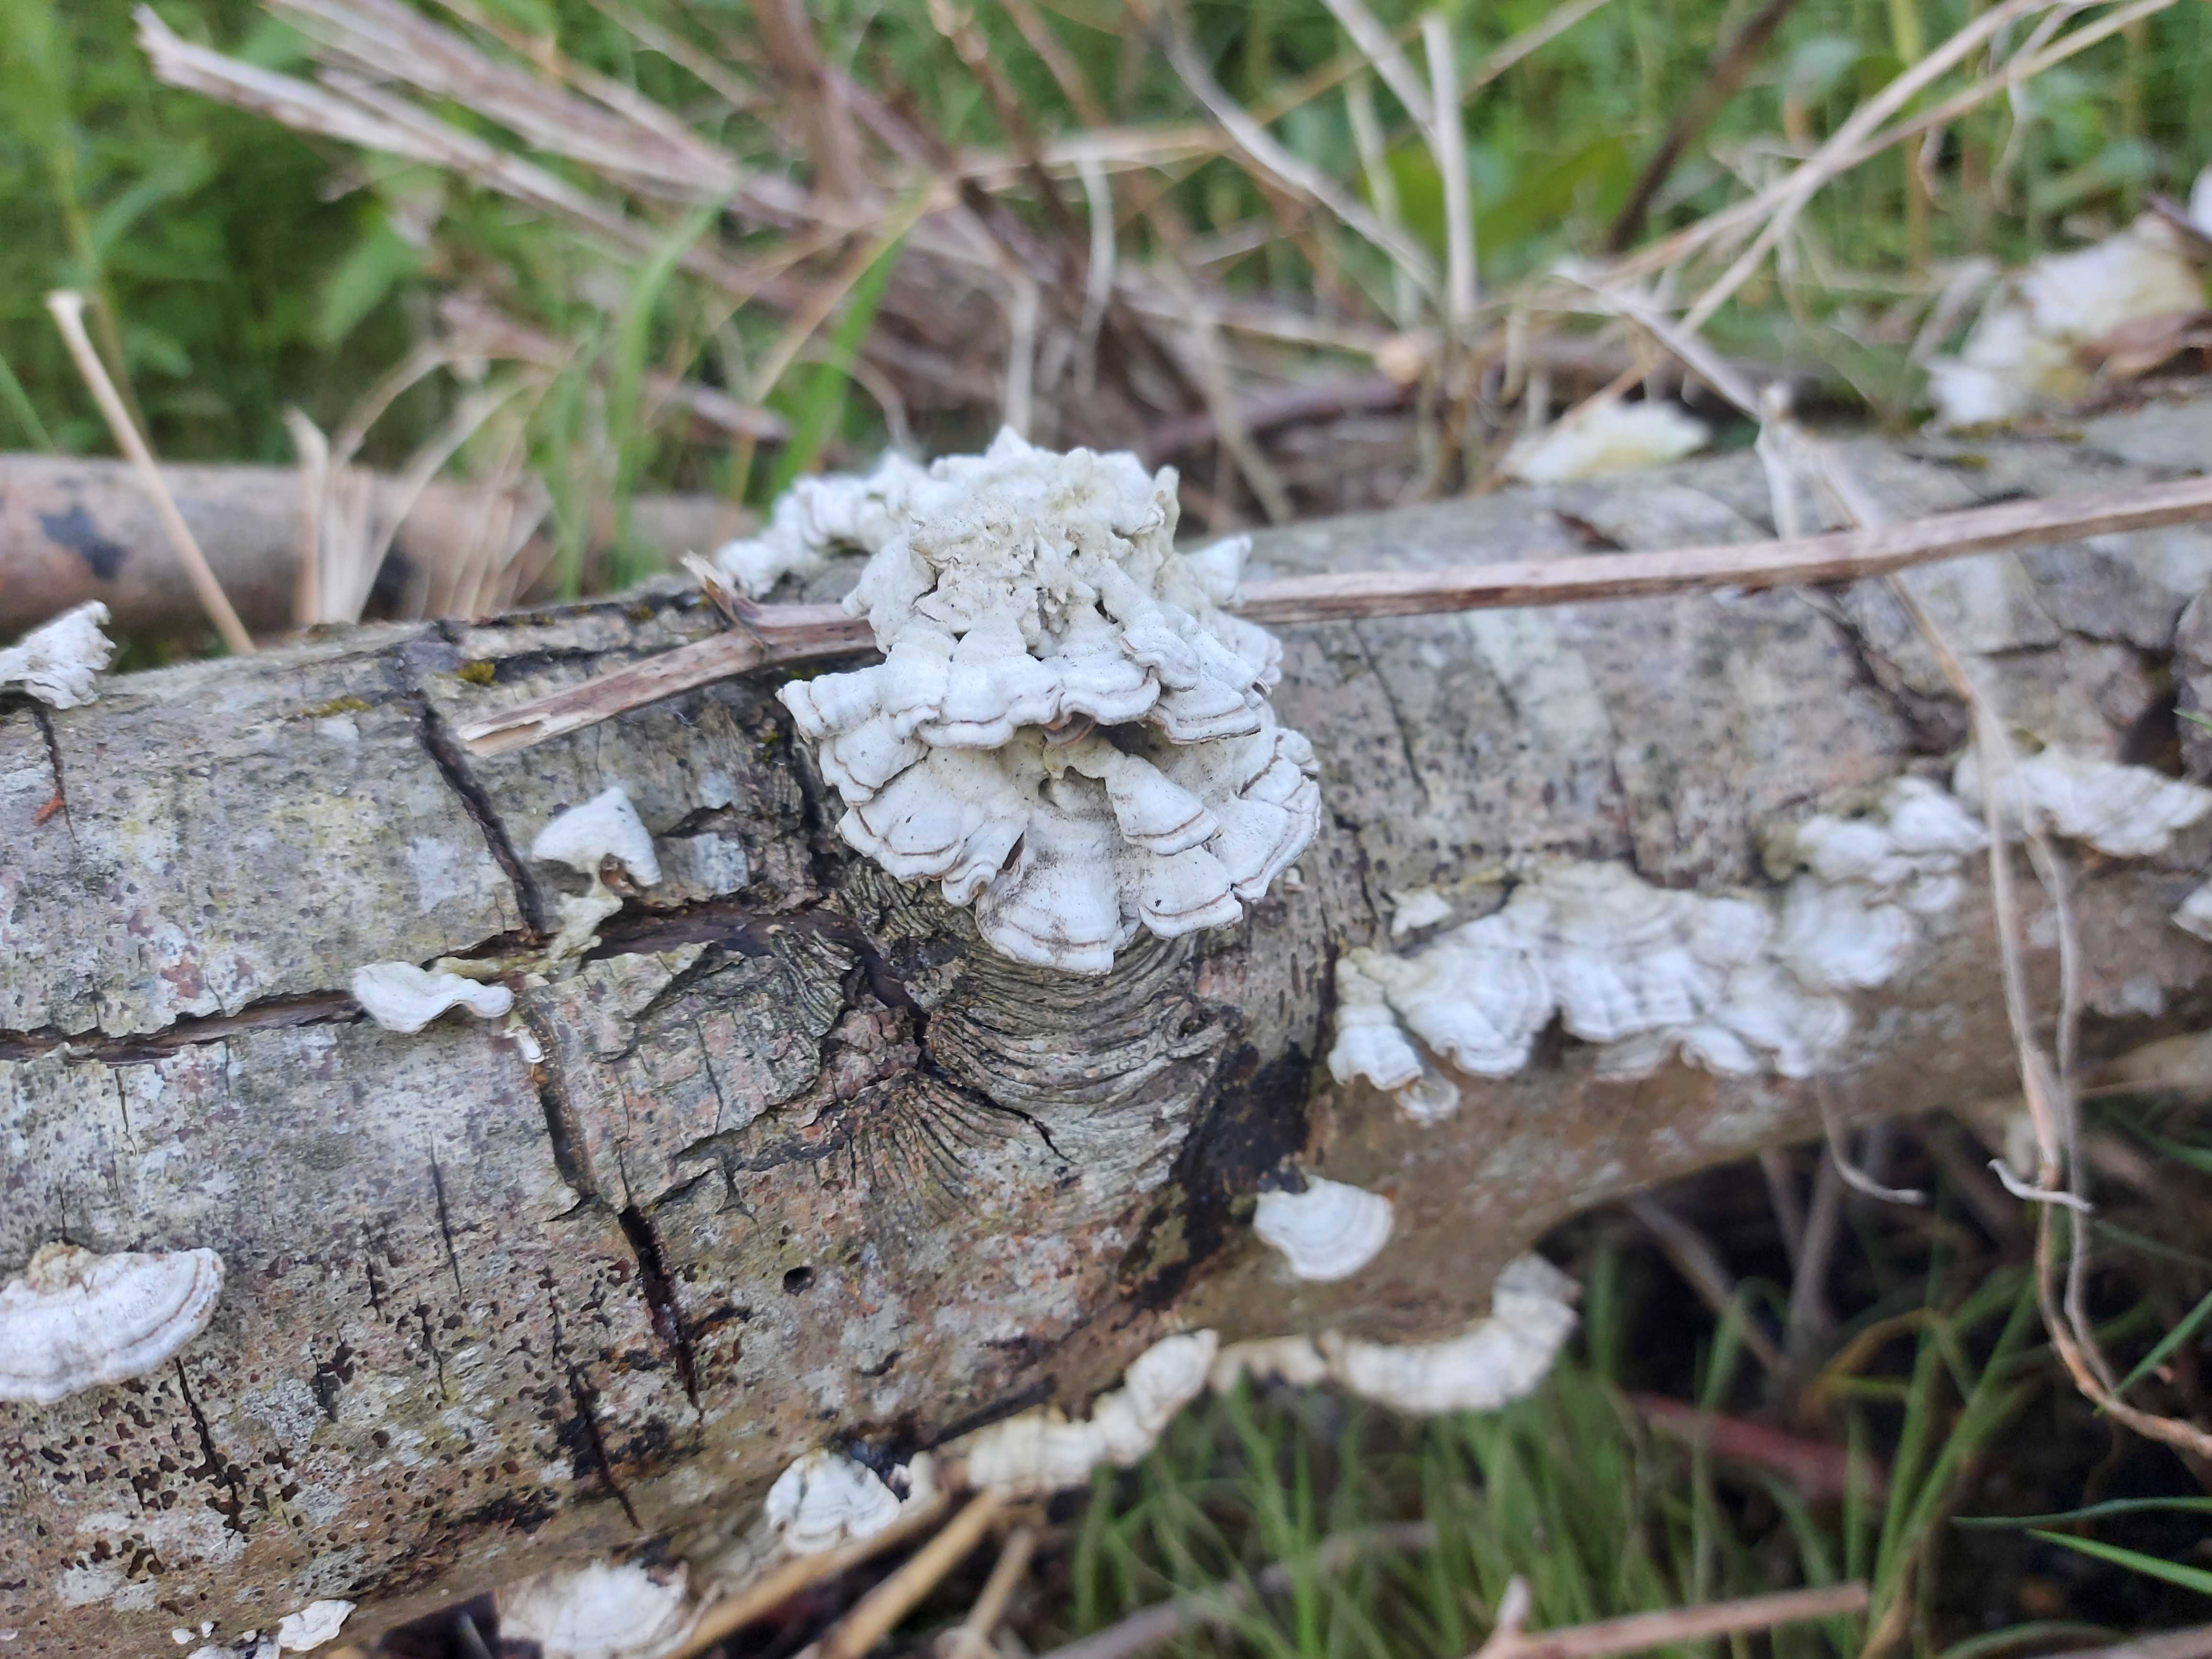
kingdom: Fungi
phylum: Basidiomycota
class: Agaricomycetes
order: Russulales
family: Stereaceae
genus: Stereum
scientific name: Stereum subtomentosum
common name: smuk lædersvamp
